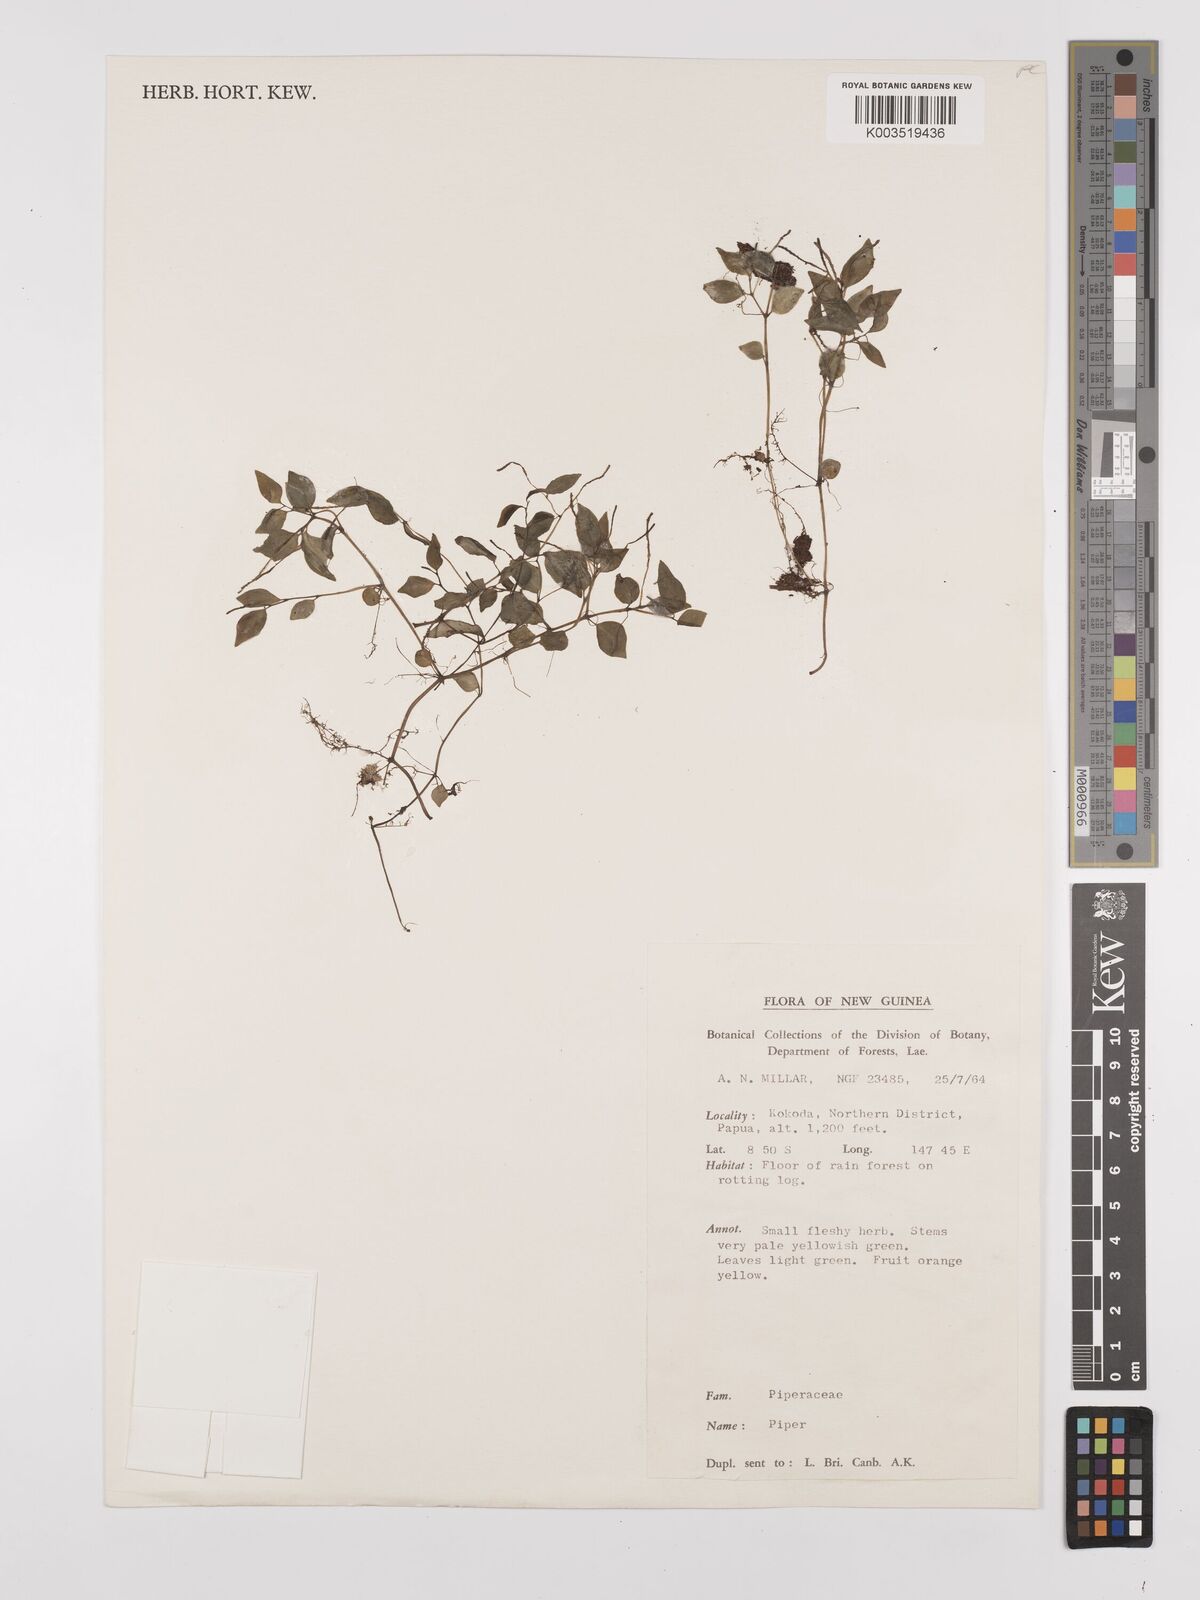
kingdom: Plantae
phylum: Tracheophyta
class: Magnoliopsida
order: Piperales
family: Piperaceae
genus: Peperomia
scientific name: Peperomia
